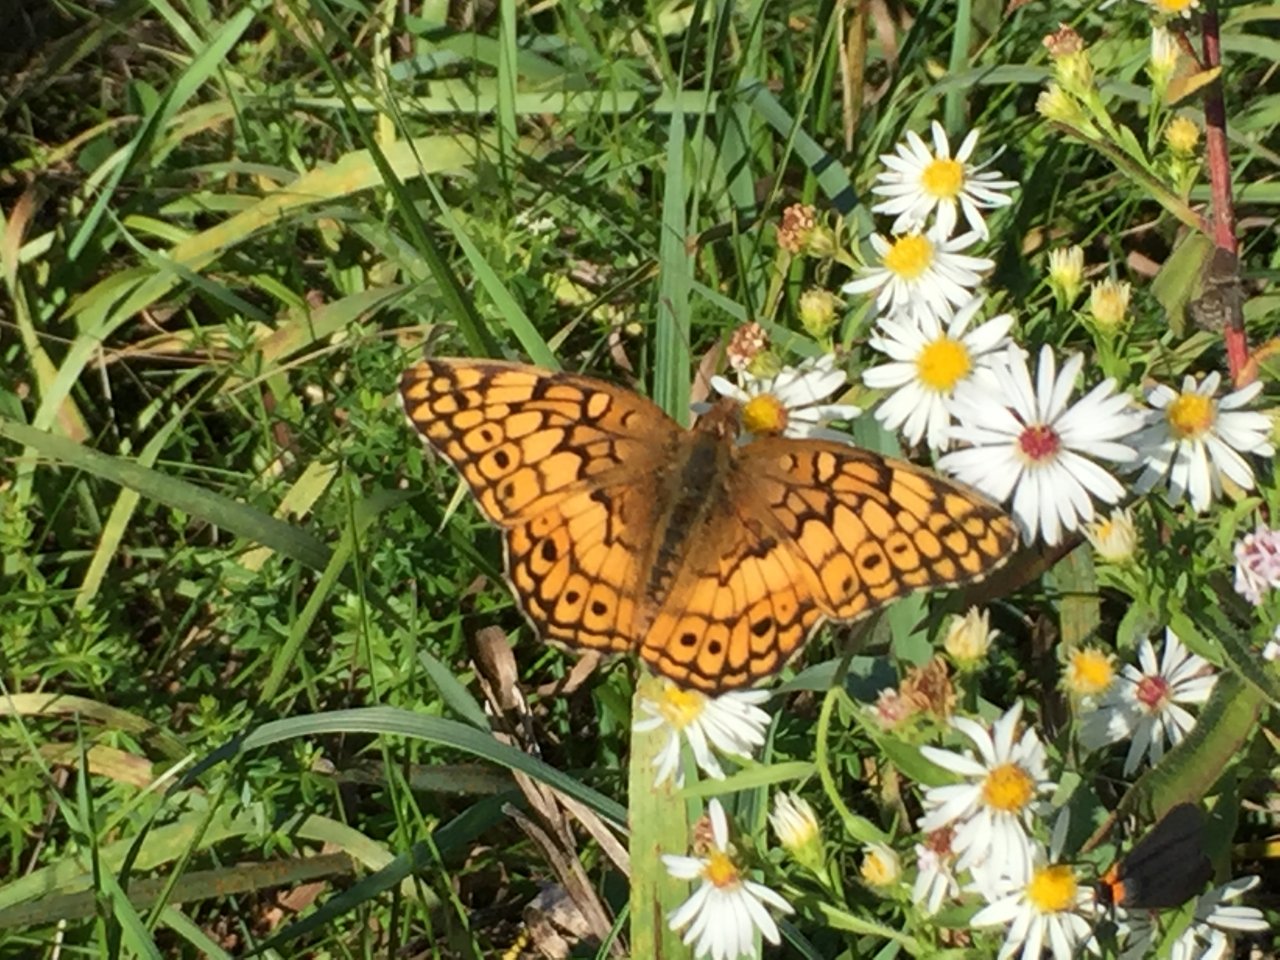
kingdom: Animalia
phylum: Arthropoda
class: Insecta
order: Lepidoptera
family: Nymphalidae
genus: Euptoieta
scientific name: Euptoieta claudia
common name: Variegated Fritillary
